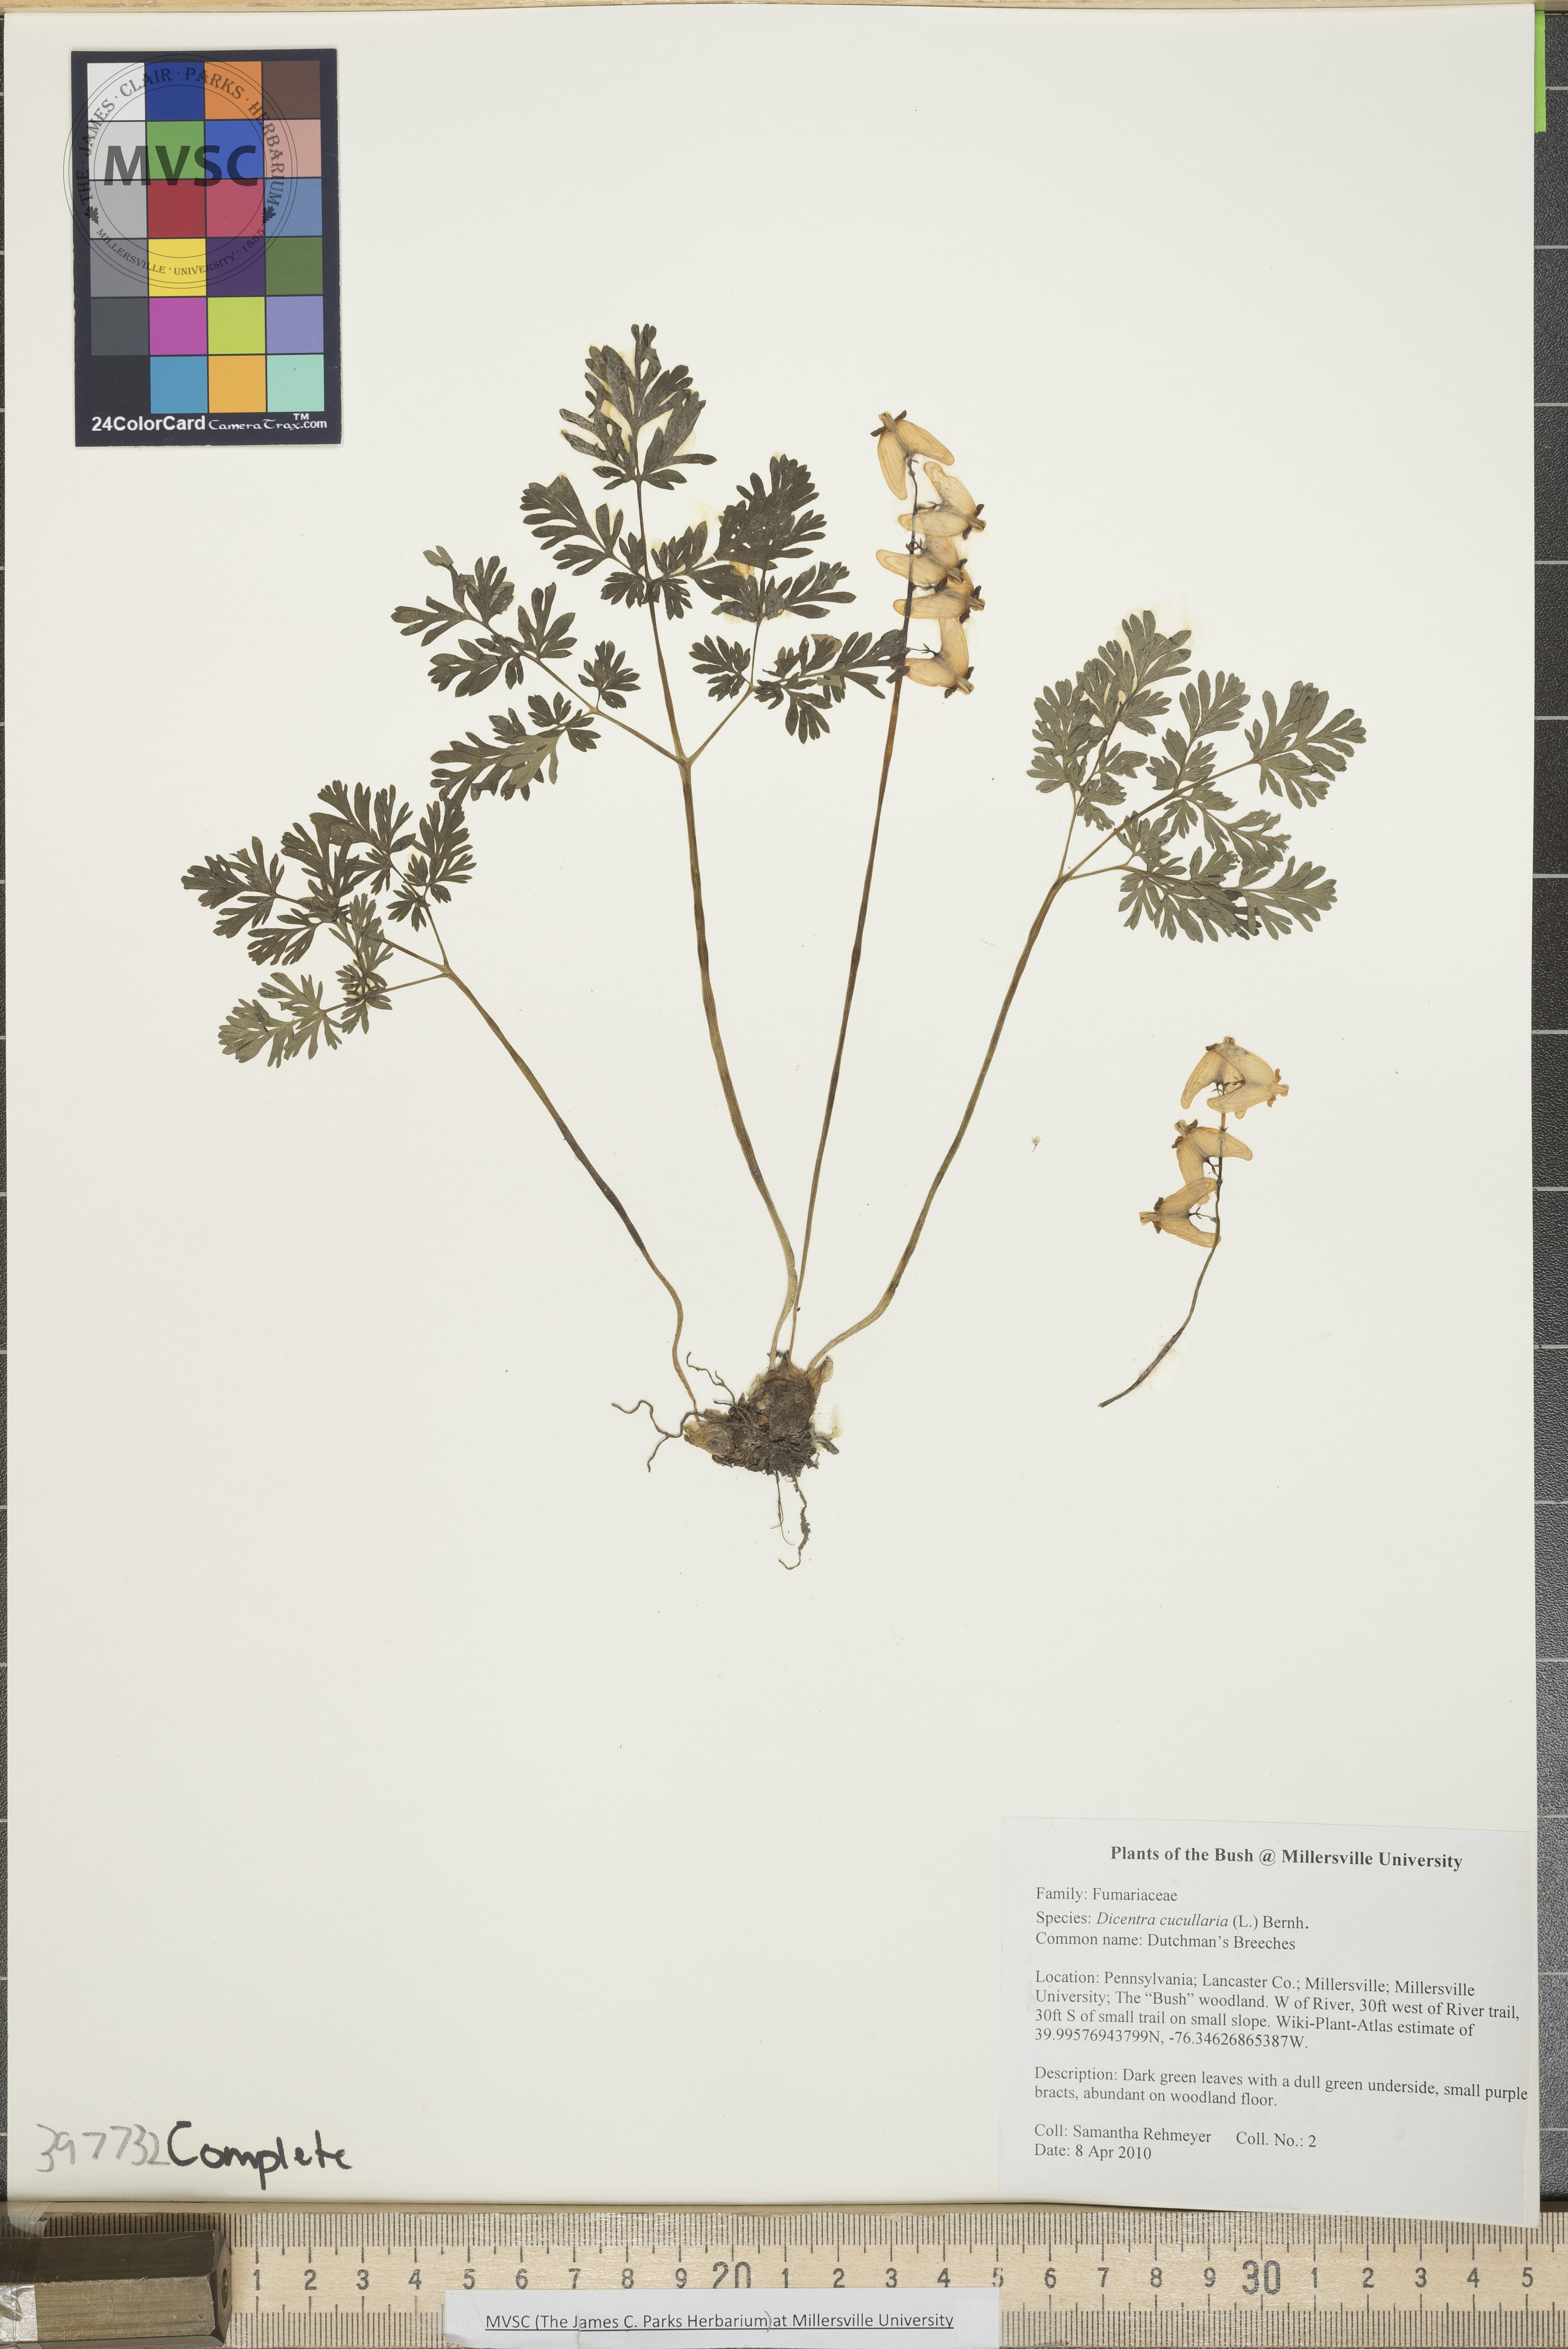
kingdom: Plantae
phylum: Tracheophyta
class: Magnoliopsida
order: Ranunculales
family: Papaveraceae
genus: Dicentra
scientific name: Dicentra cucullaria
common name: Dutchman's-breeches
